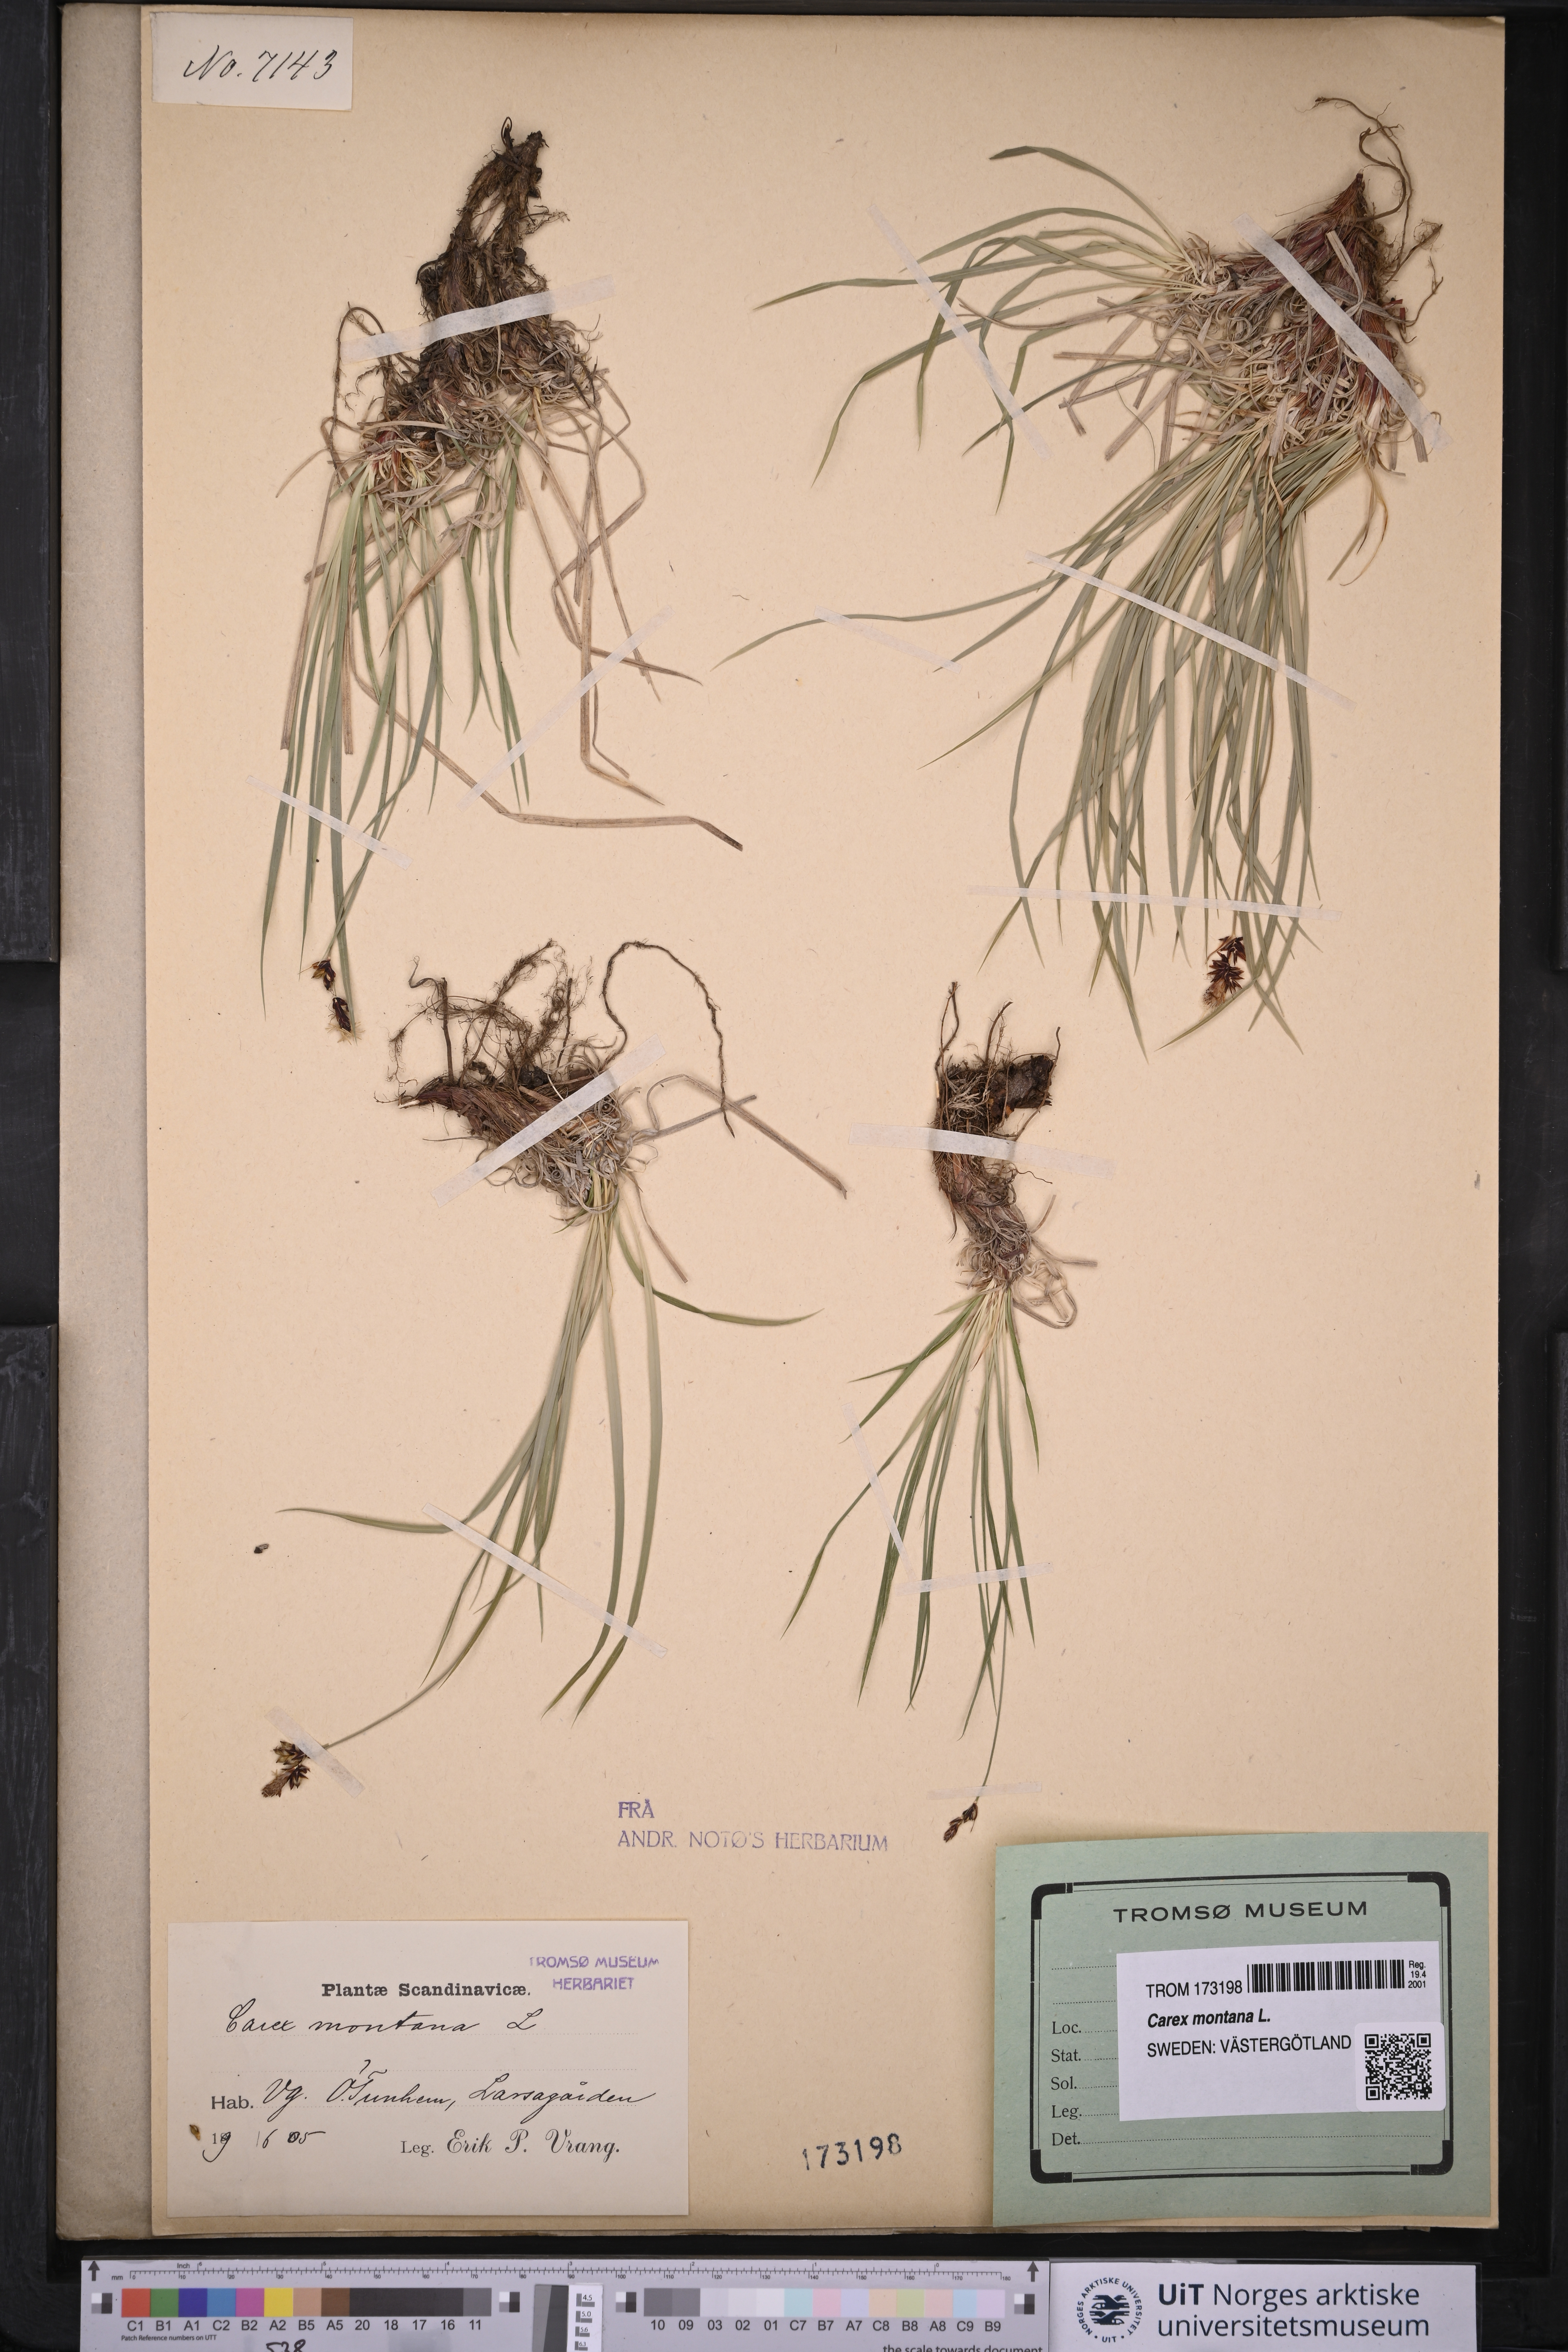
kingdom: Plantae
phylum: Tracheophyta
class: Liliopsida
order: Poales
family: Cyperaceae
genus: Carex
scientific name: Carex montana
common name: Soft-leaved sedge
